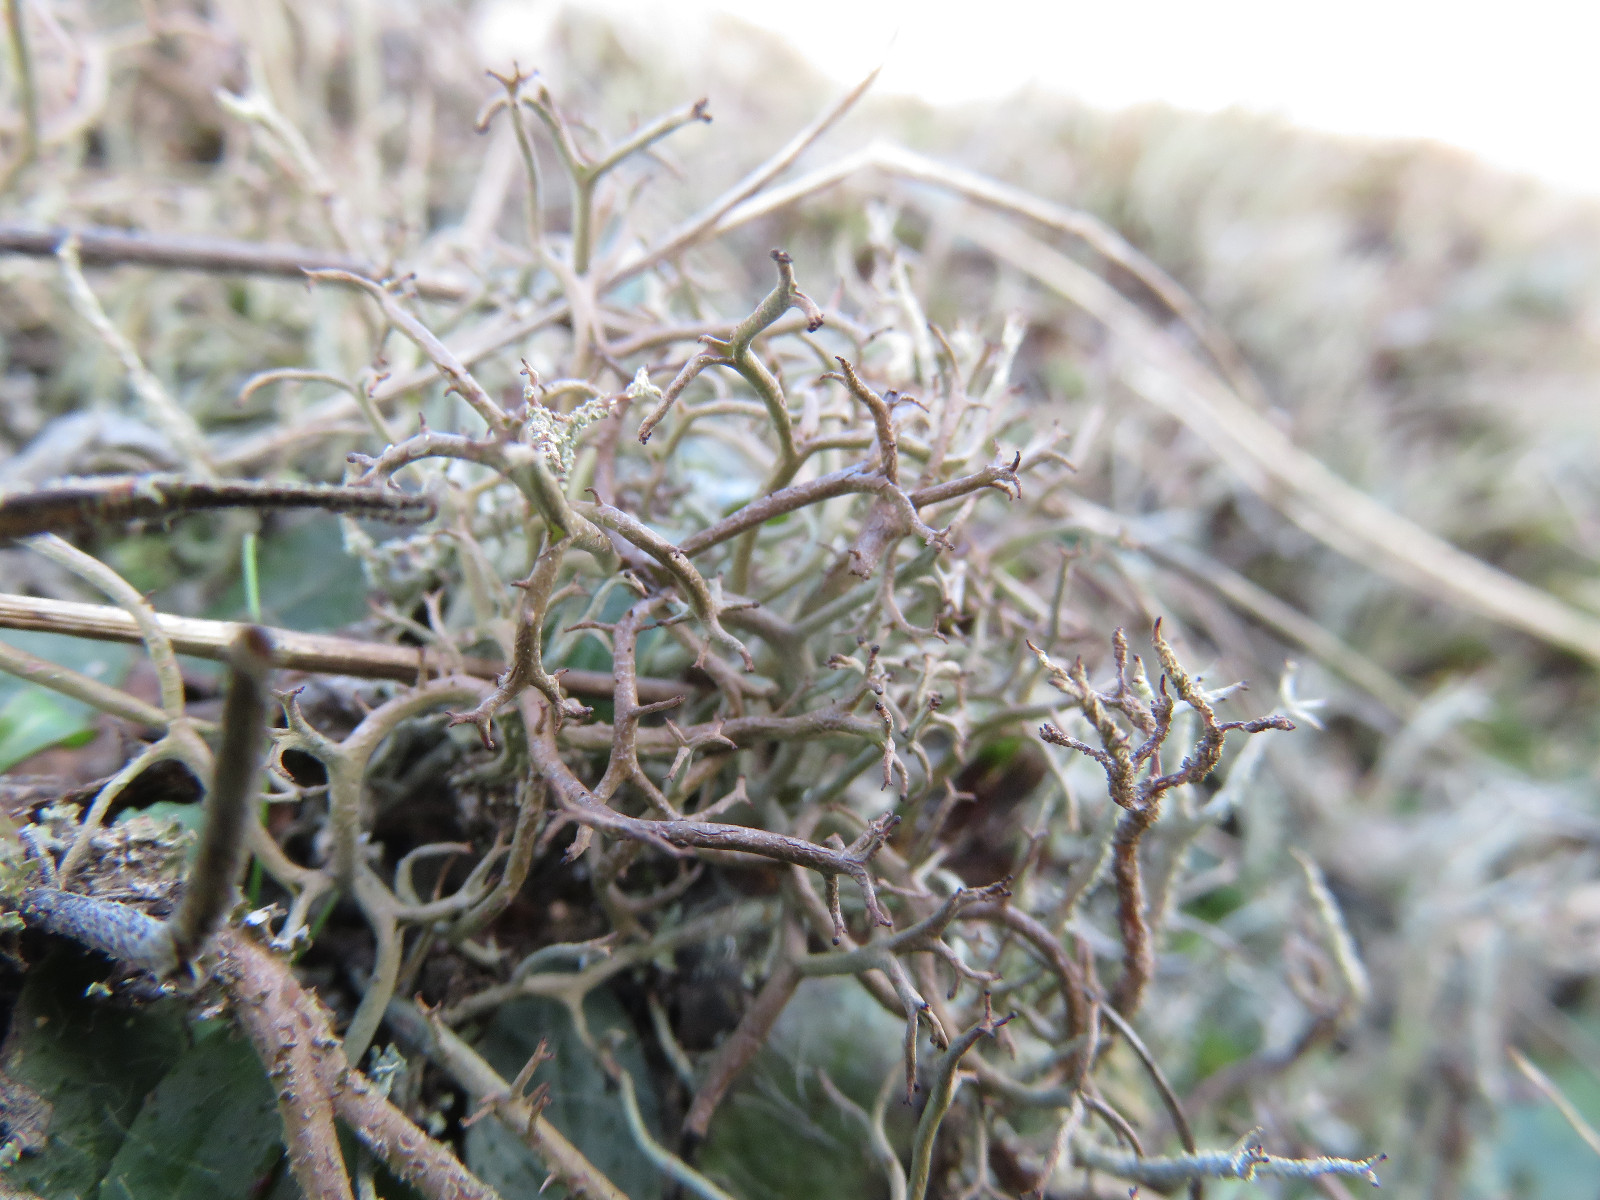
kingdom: Fungi
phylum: Ascomycota
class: Lecanoromycetes
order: Lecanorales
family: Cladoniaceae
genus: Cladonia
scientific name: Cladonia furcata
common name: kløftet bægerlav
